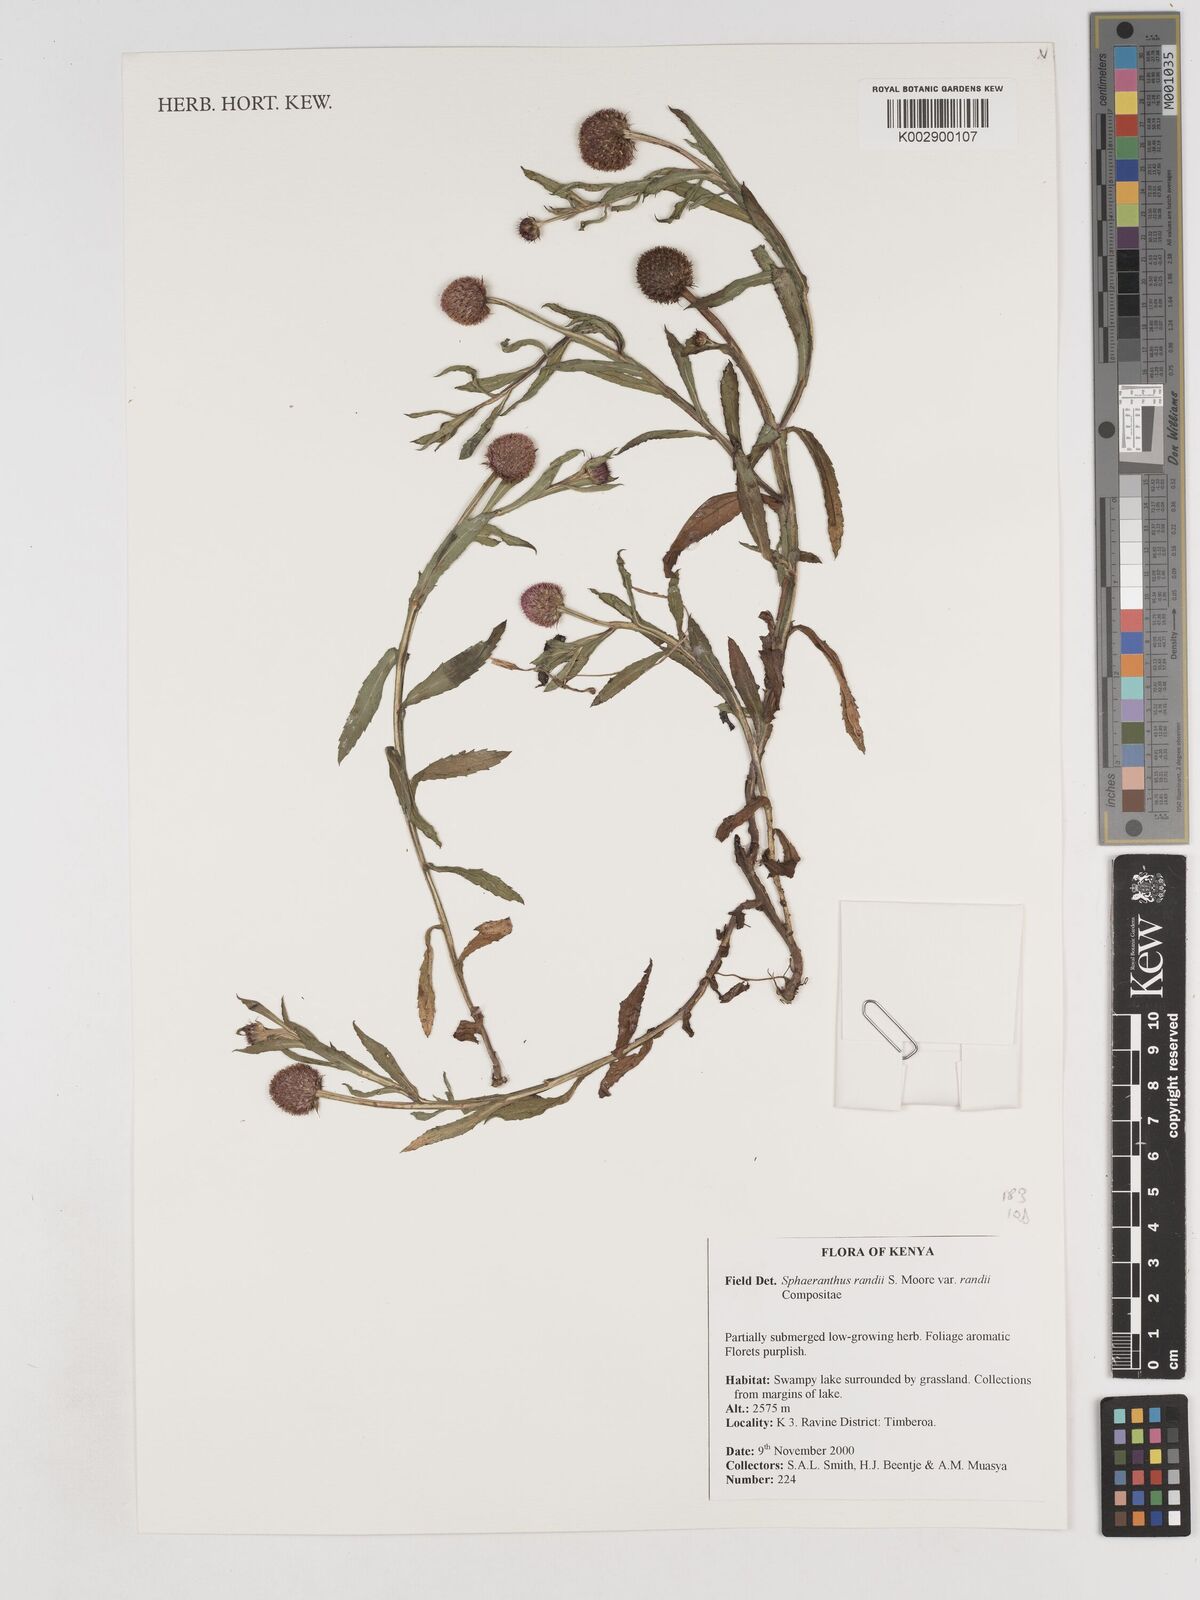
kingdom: Plantae
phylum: Tracheophyta
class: Magnoliopsida
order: Asterales
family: Asteraceae
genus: Sphaeranthus
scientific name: Sphaeranthus randii
